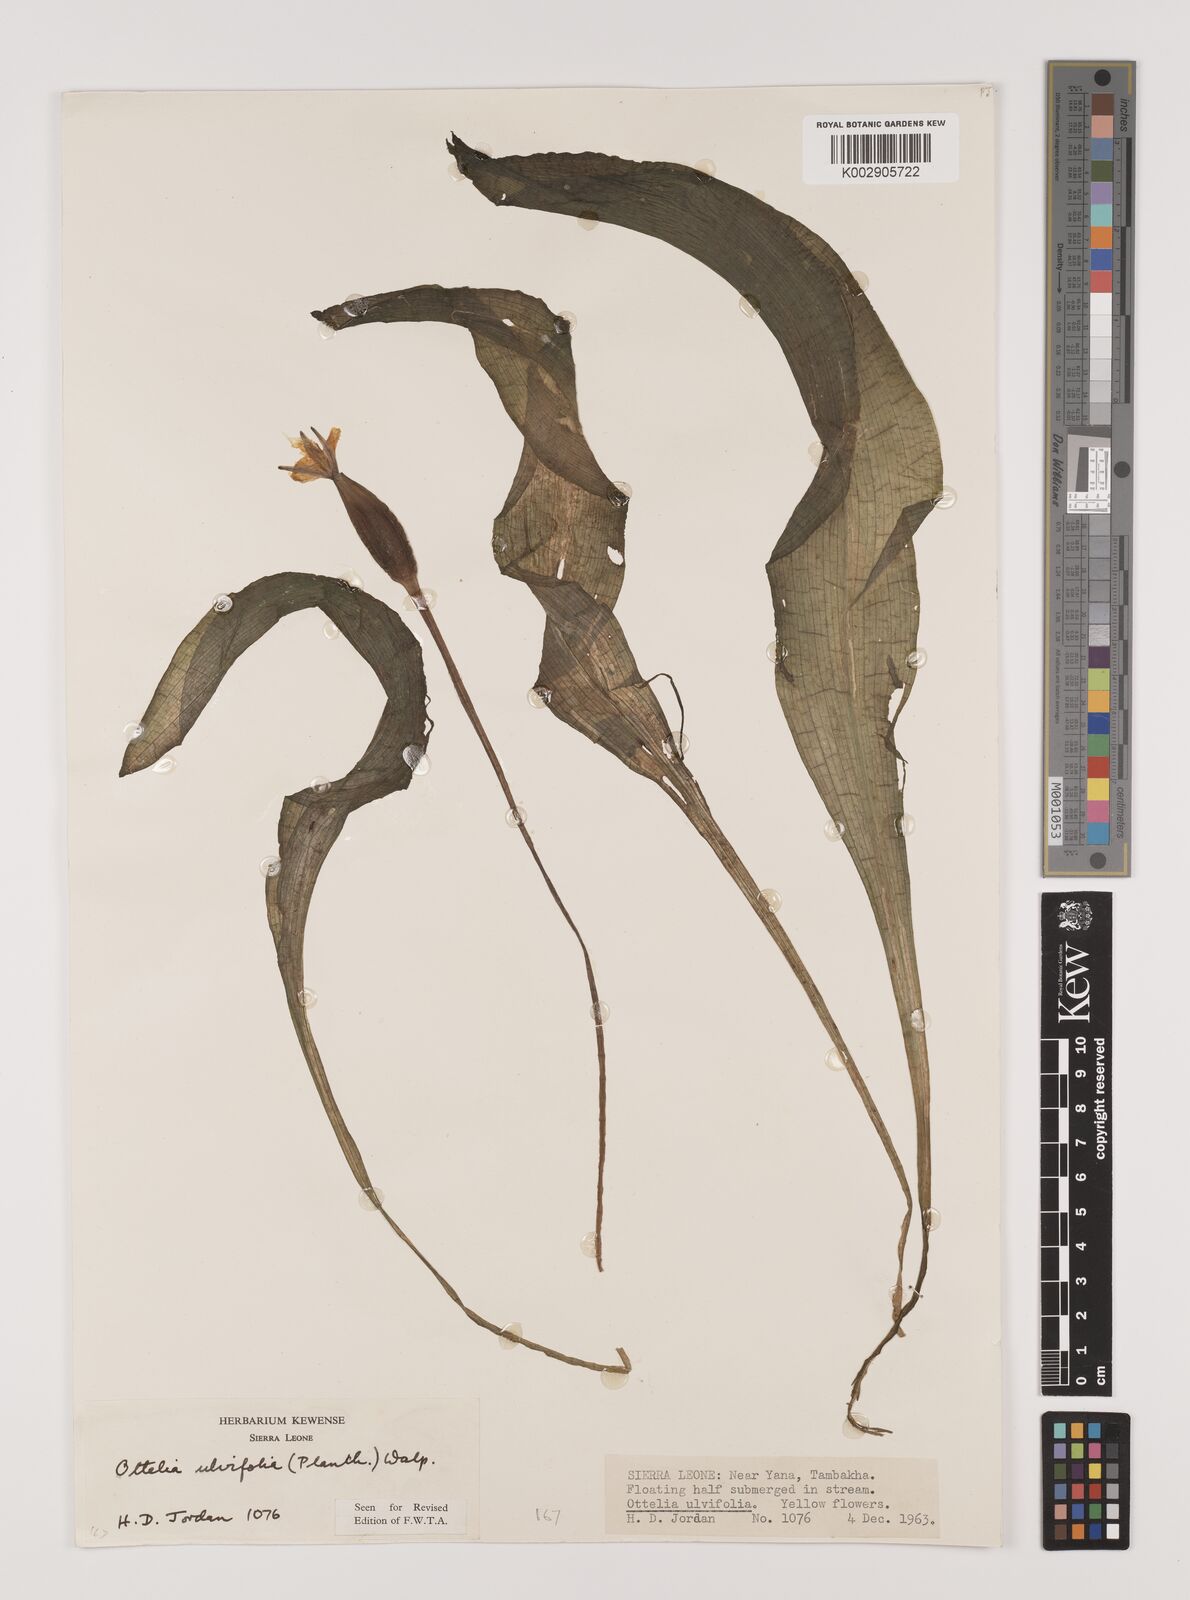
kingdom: Plantae
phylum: Tracheophyta
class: Liliopsida
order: Alismatales
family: Hydrocharitaceae
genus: Ottelia
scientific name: Ottelia ulvifolia
